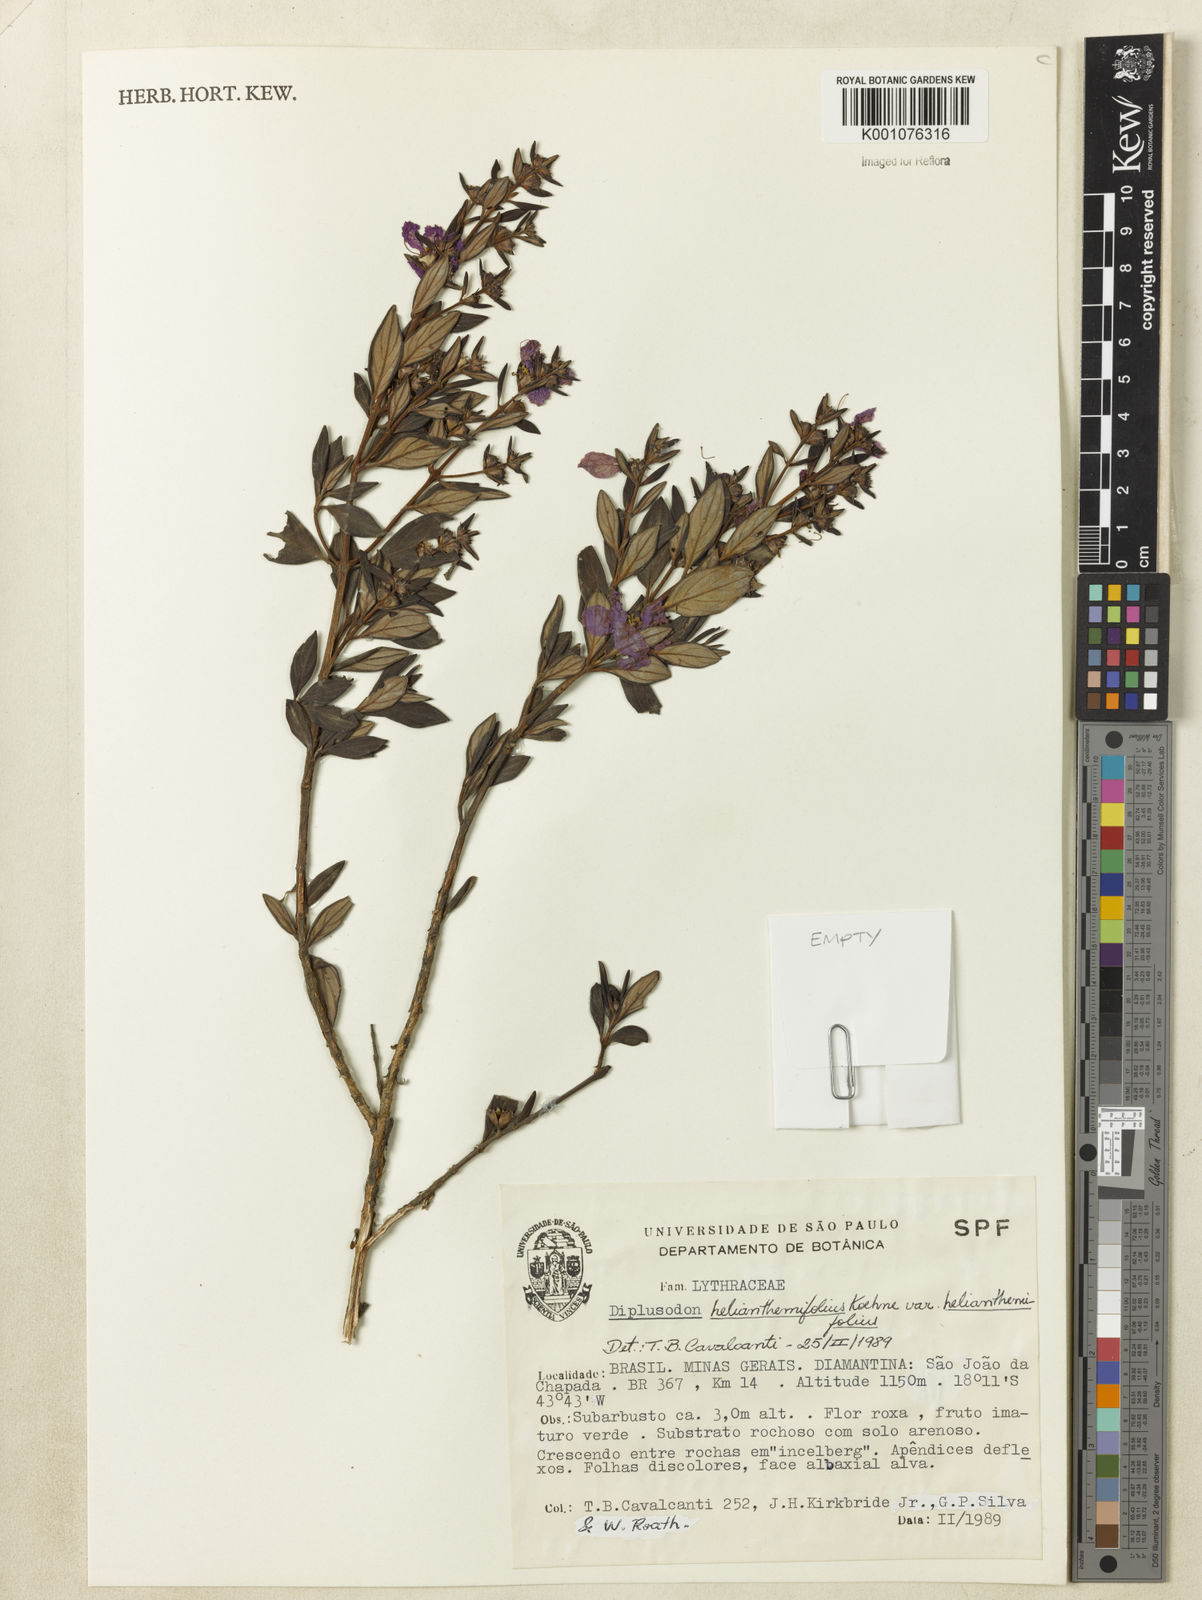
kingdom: Plantae
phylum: Tracheophyta
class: Magnoliopsida
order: Myrtales
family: Lythraceae
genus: Diplusodon
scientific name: Diplusodon helianthemifolius
